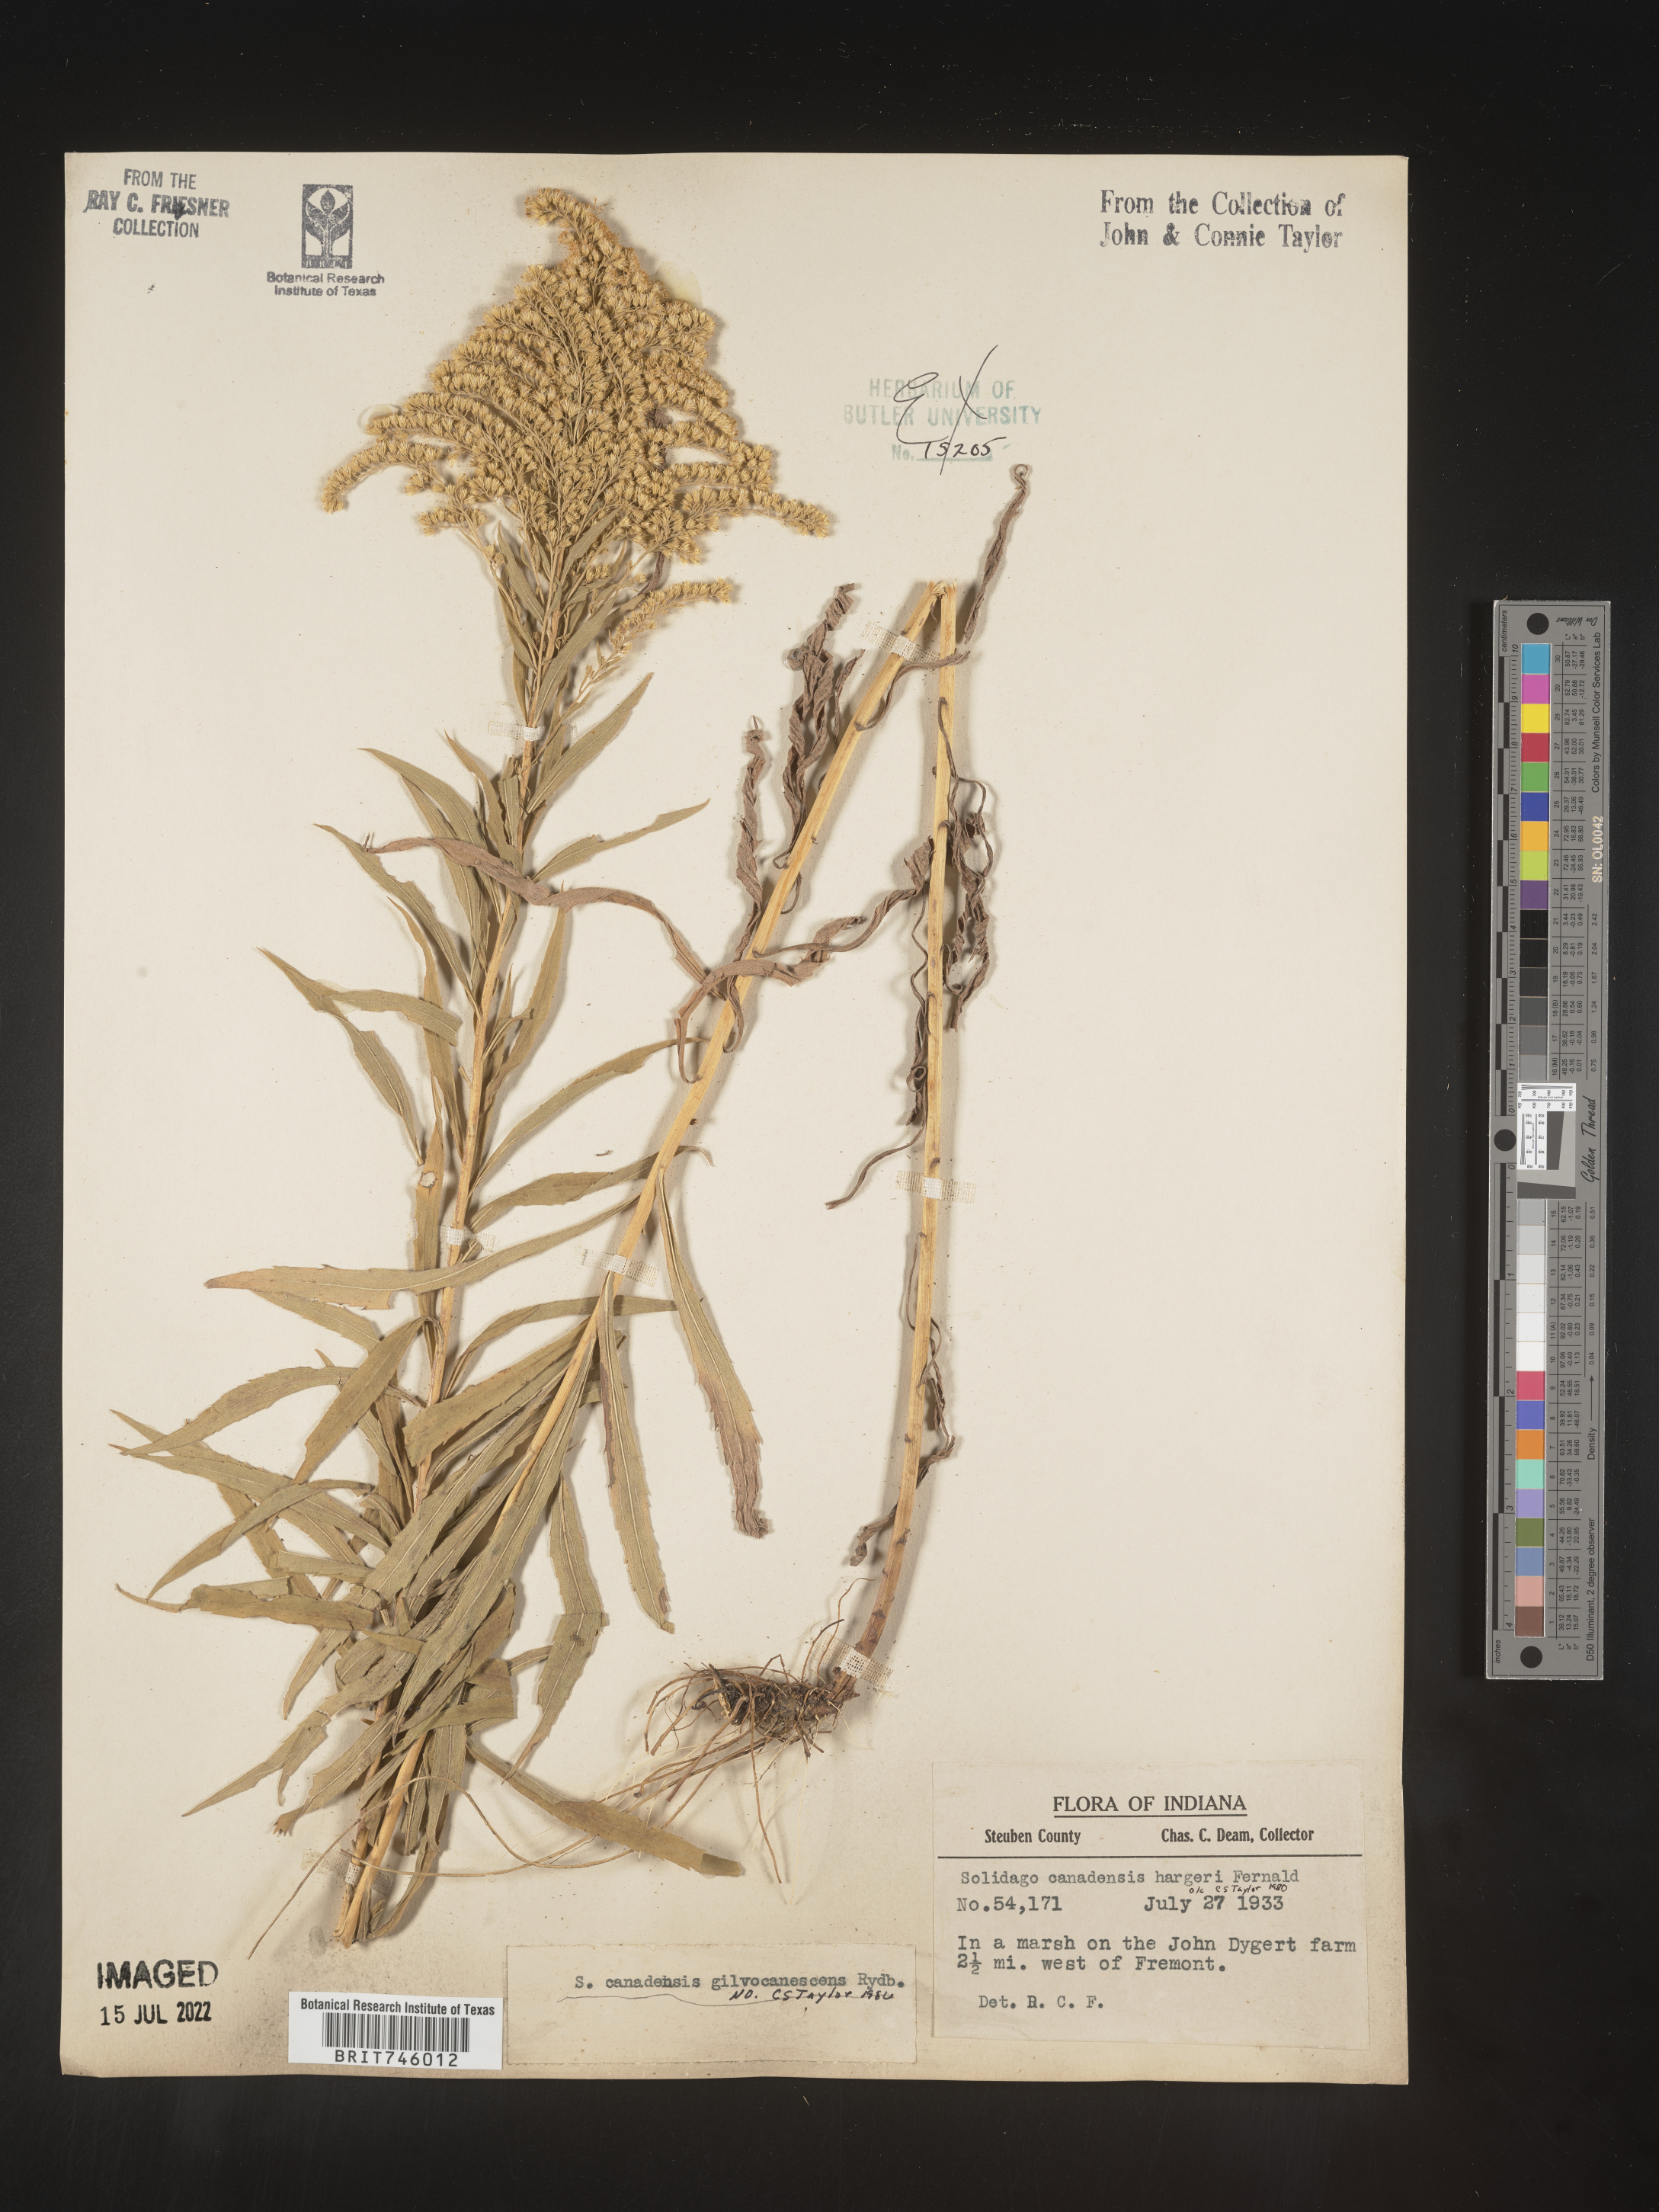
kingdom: Plantae
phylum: Tracheophyta
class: Magnoliopsida
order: Asterales
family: Asteraceae
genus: Solidago
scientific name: Solidago canadensis
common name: Canada goldenrod
